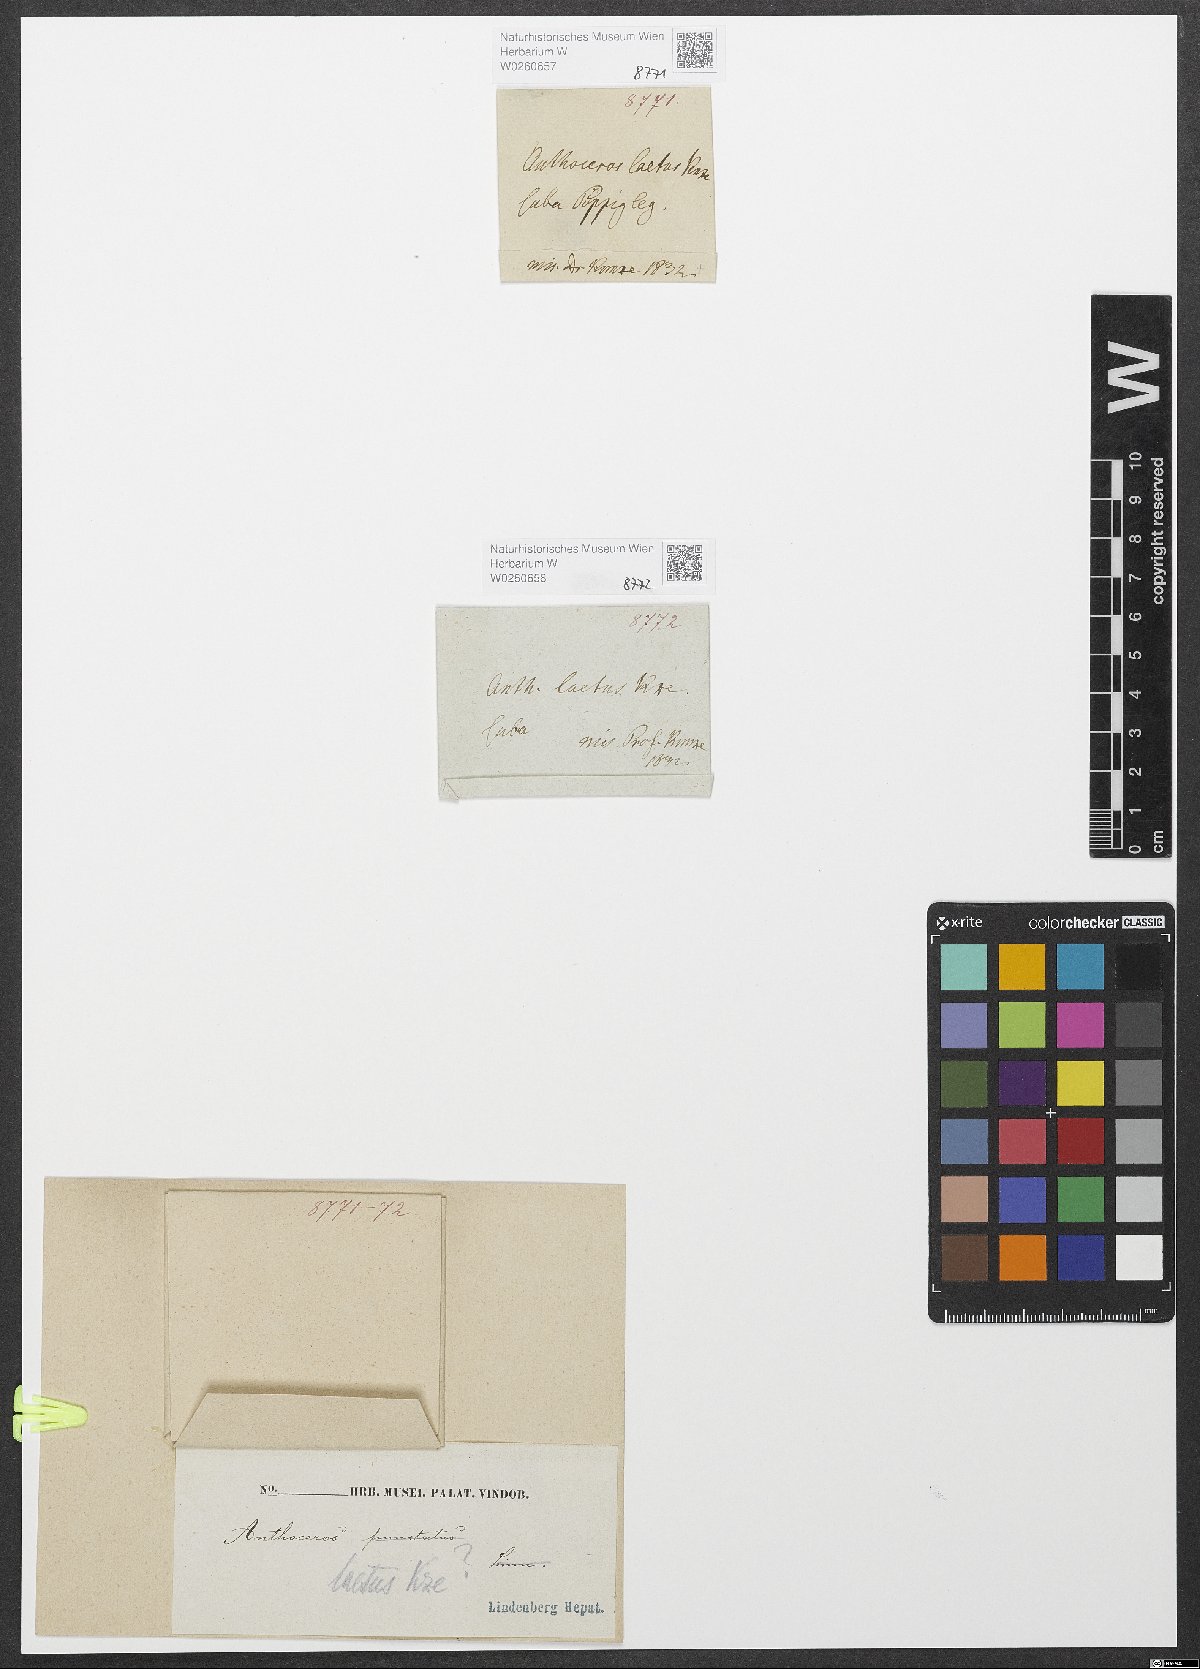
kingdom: Plantae
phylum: Anthocerotophyta
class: Anthocerotopsida
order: Anthocerotales
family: Anthocerotaceae
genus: Anthoceros
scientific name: Anthoceros
